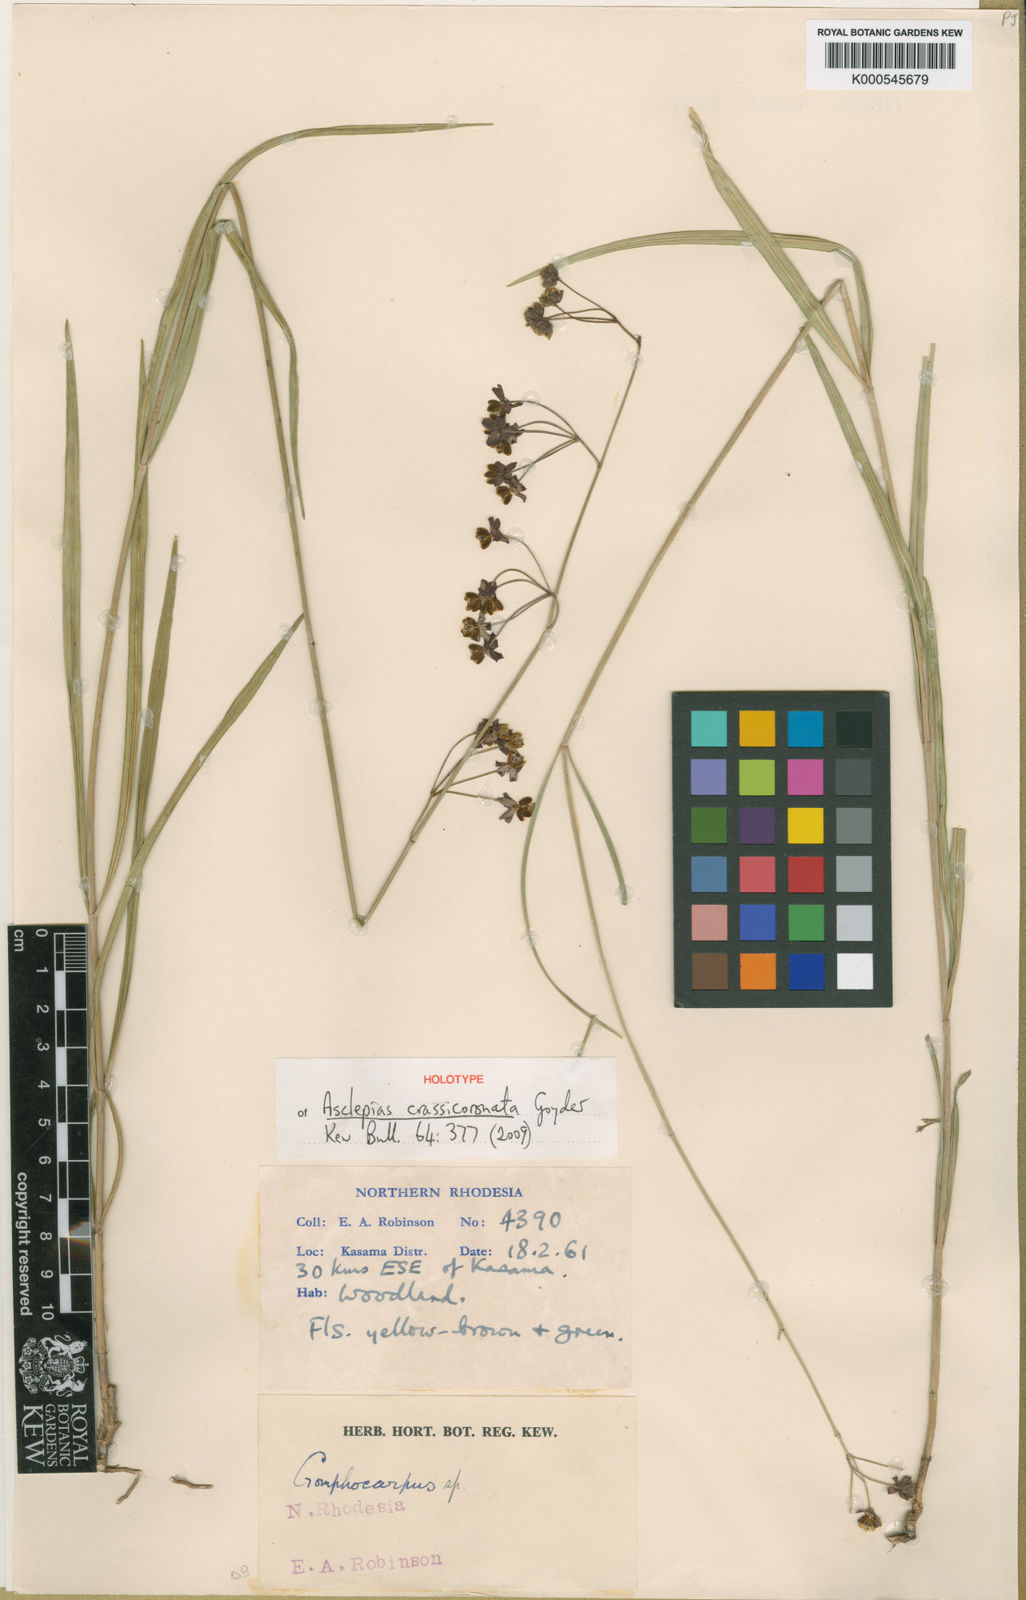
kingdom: Plantae
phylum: Tracheophyta
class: Magnoliopsida
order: Gentianales
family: Apocynaceae
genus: Asclepias
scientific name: Asclepias crassicoronata
